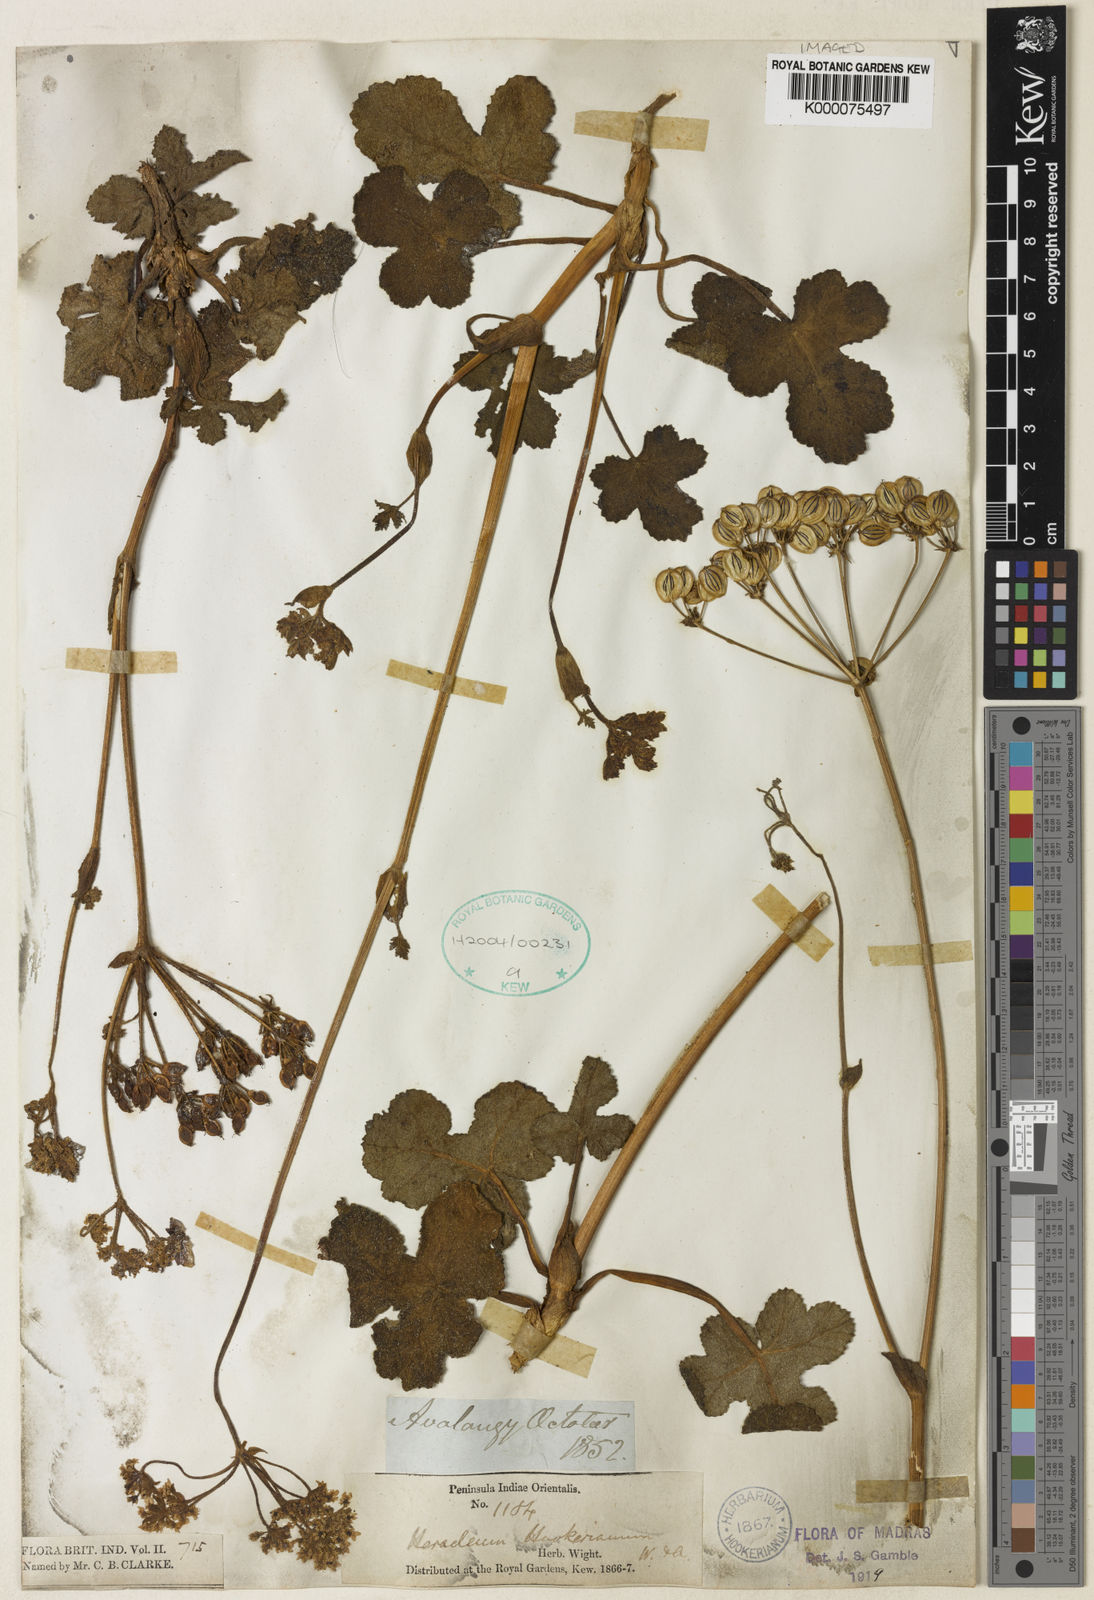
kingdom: Plantae
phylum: Tracheophyta
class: Magnoliopsida
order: Apiales
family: Apiaceae
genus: Tetrataenium
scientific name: Tetrataenium hookerianum
